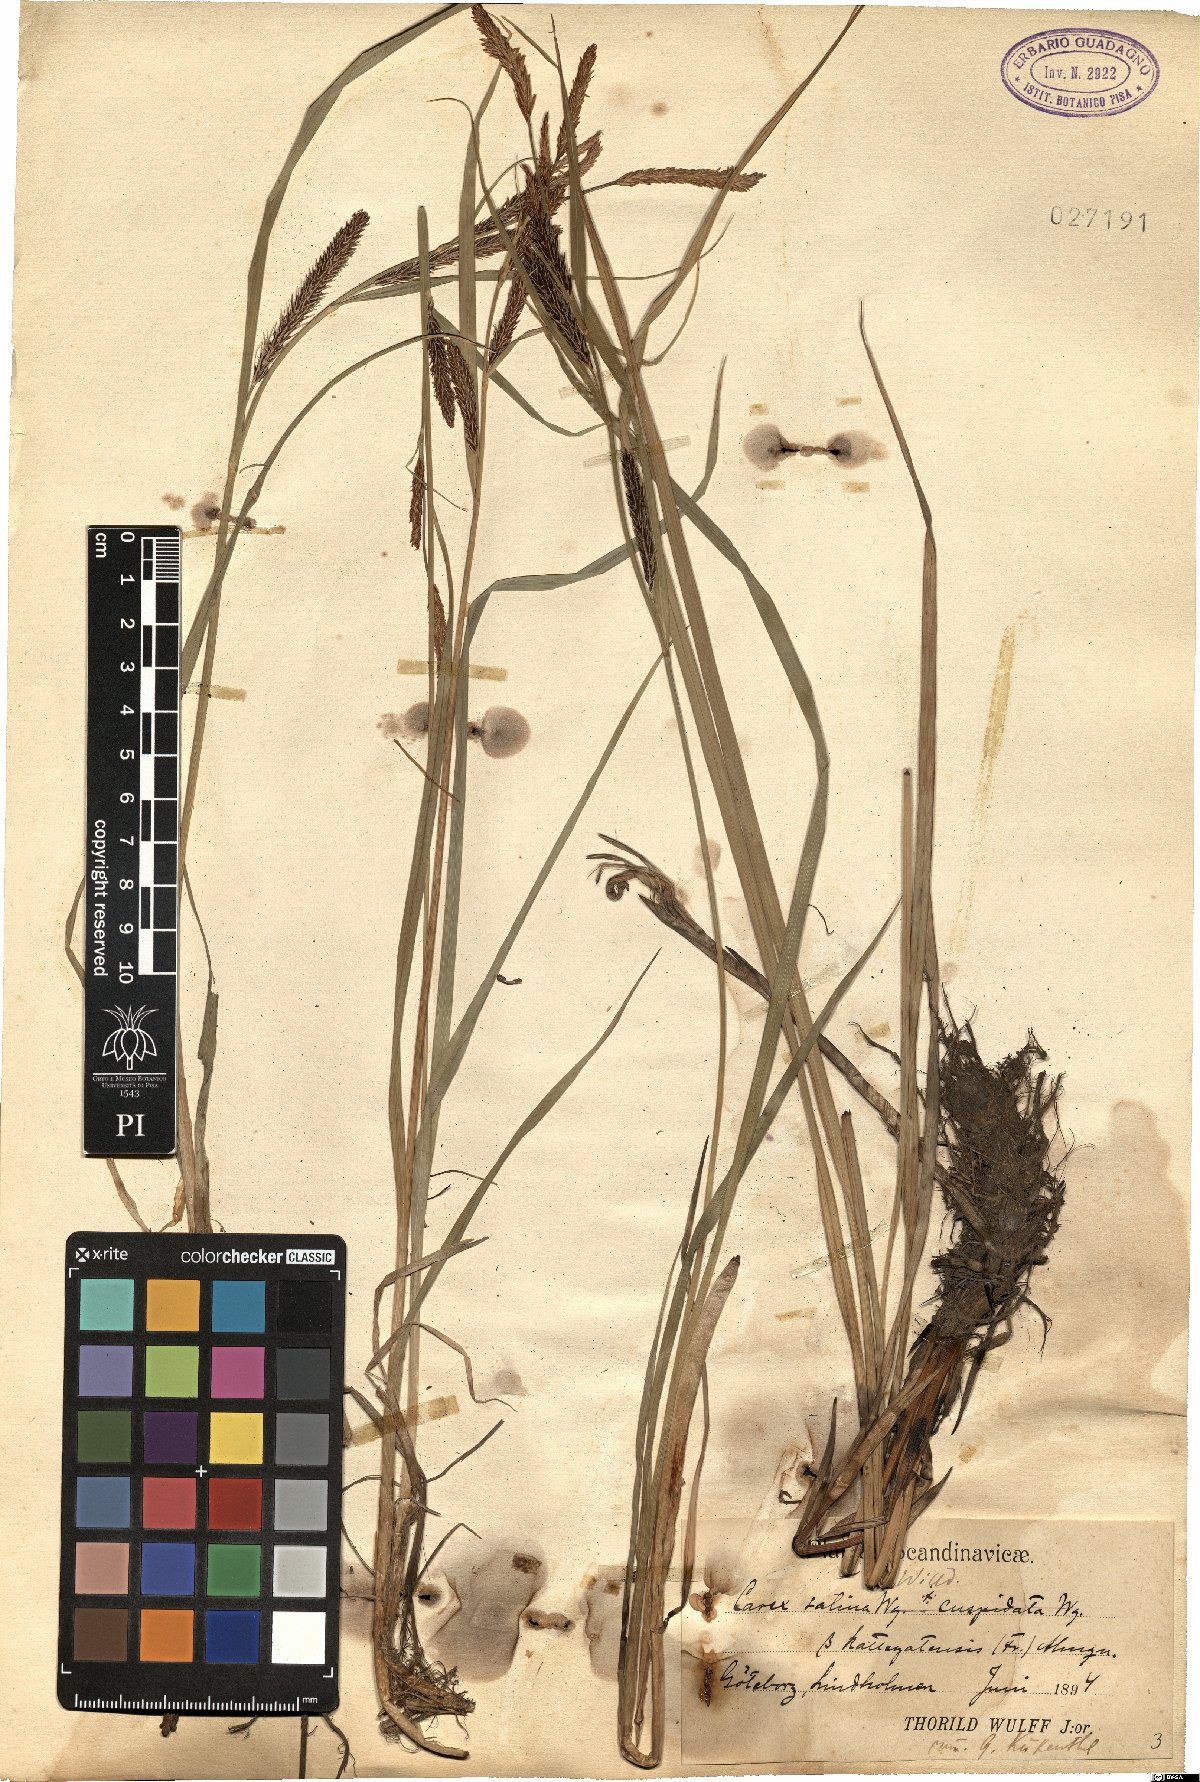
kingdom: Plantae
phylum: Tracheophyta
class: Liliopsida
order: Poales
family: Cyperaceae
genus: Carex
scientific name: Carex vacillans
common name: Sedge
